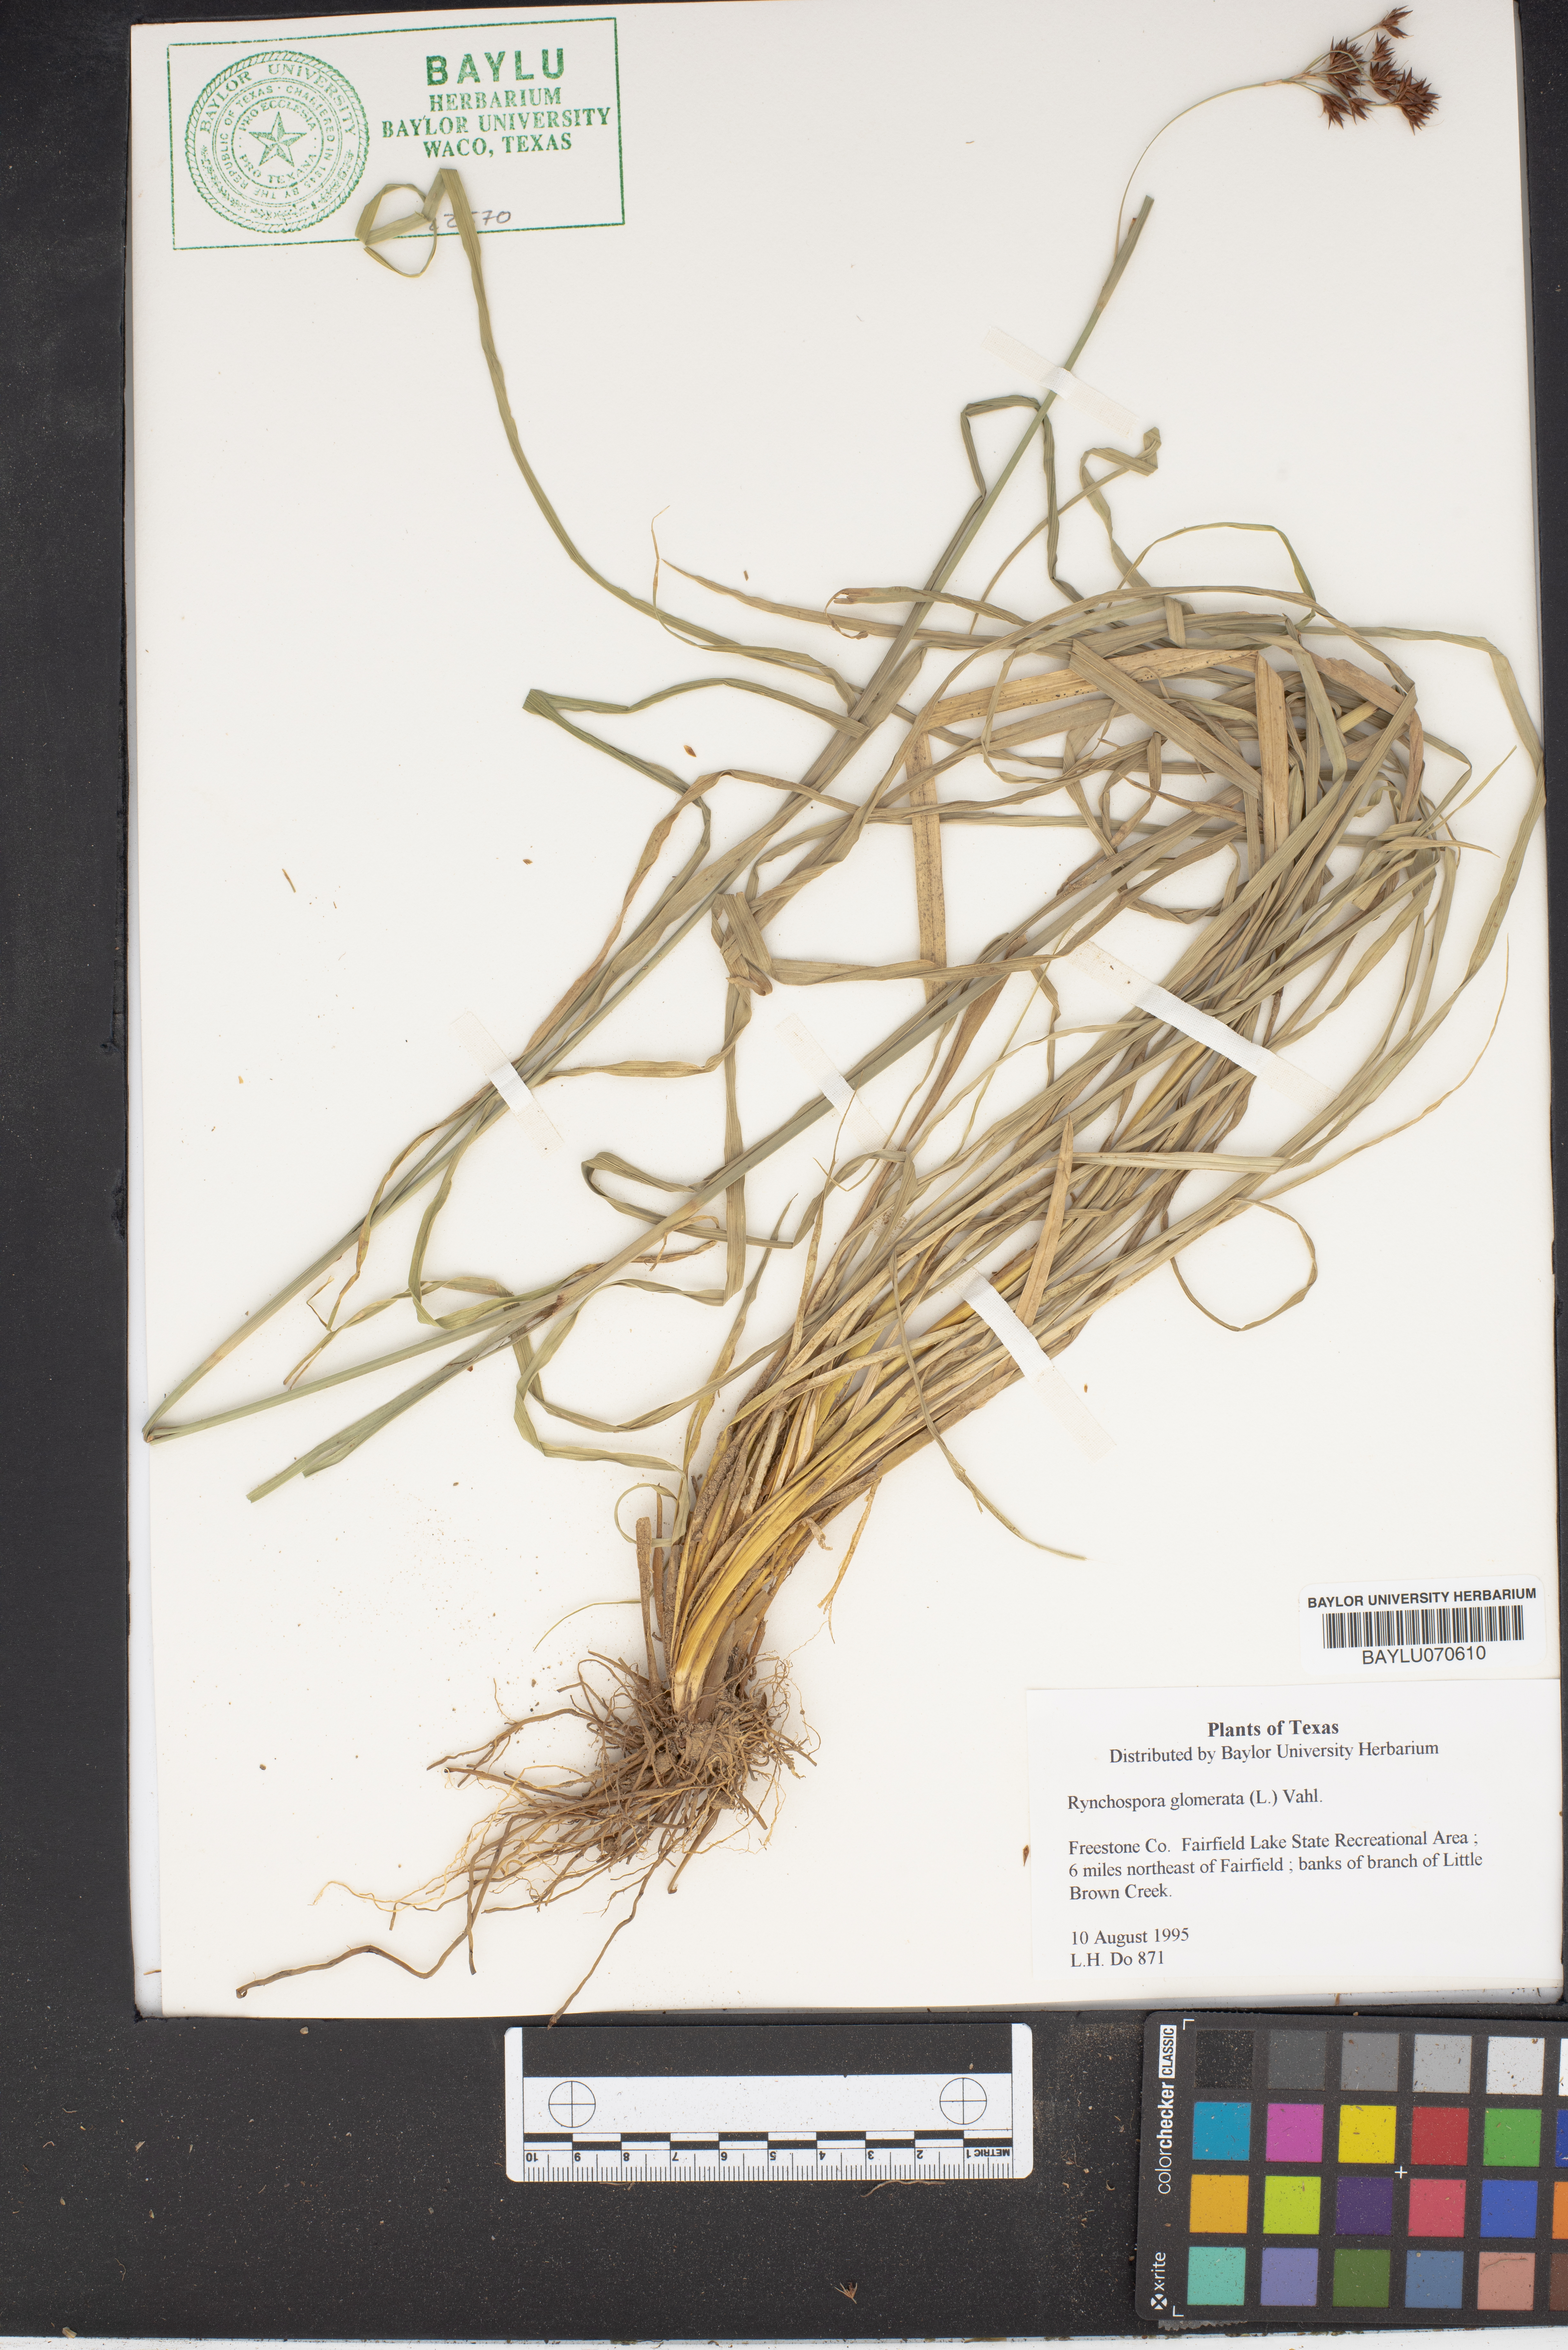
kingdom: Plantae
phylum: Tracheophyta
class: Liliopsida
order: Poales
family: Cyperaceae
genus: Rhynchospora
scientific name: Rhynchospora glomerata
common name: Cluster beak sedge
